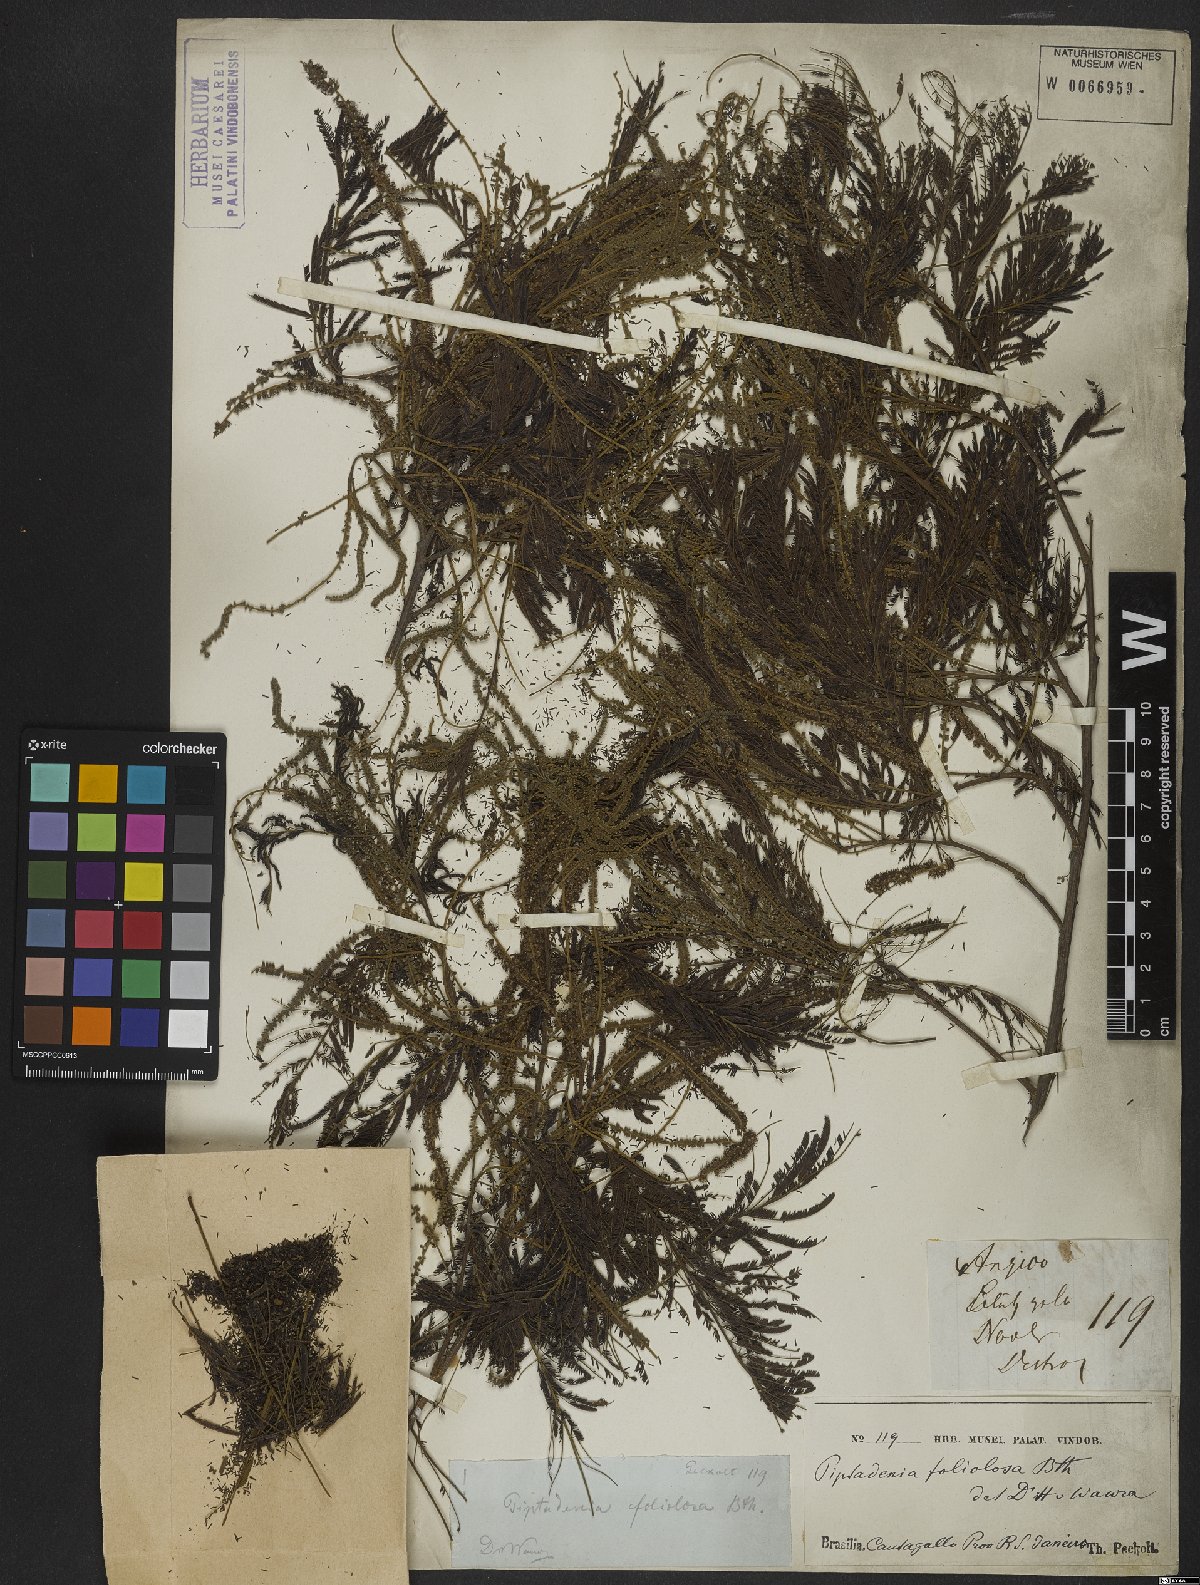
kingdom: Plantae
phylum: Tracheophyta
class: Magnoliopsida
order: Fabales
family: Fabaceae
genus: Stryphnodendron
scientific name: Stryphnodendron pulcherrimum
